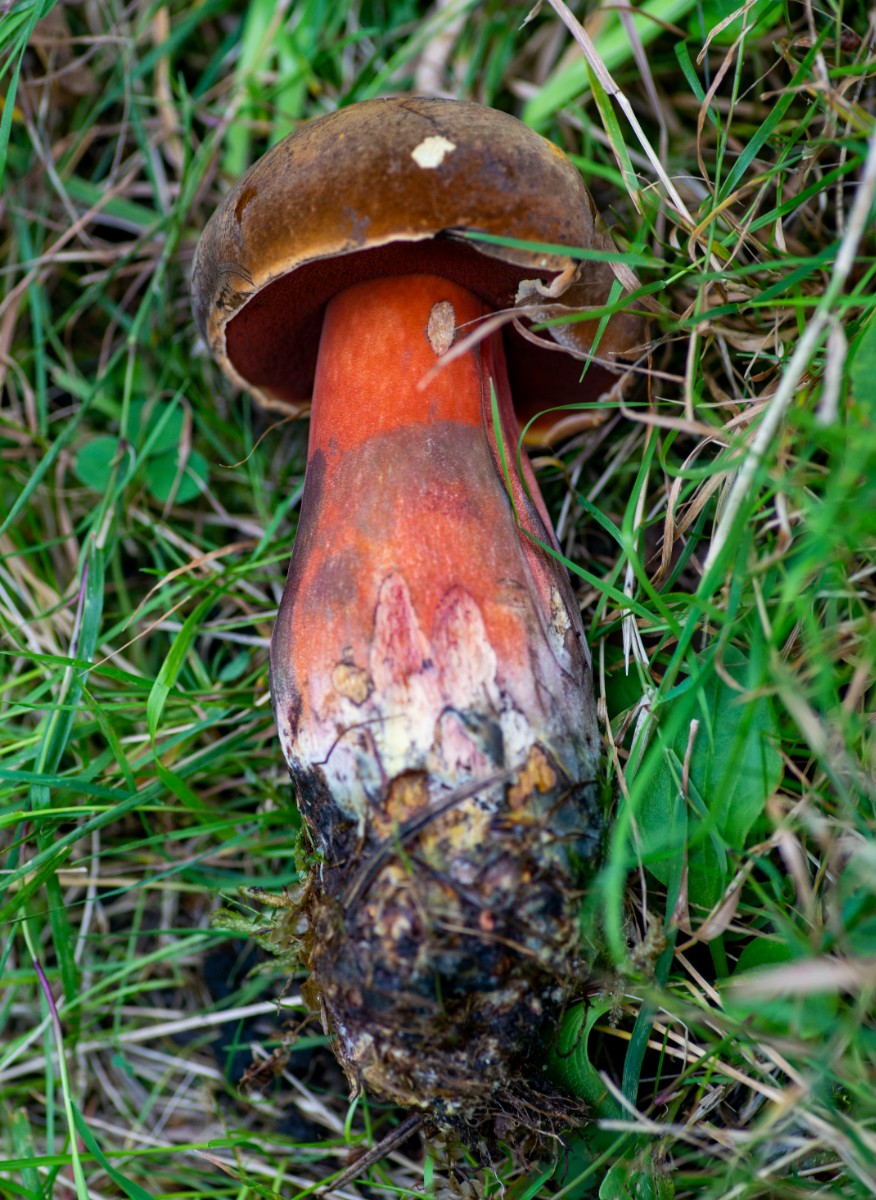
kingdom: Fungi
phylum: Basidiomycota
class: Agaricomycetes
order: Boletales
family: Boletaceae
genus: Neoboletus
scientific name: Neoboletus erythropus
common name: punktstokket indigorørhat
